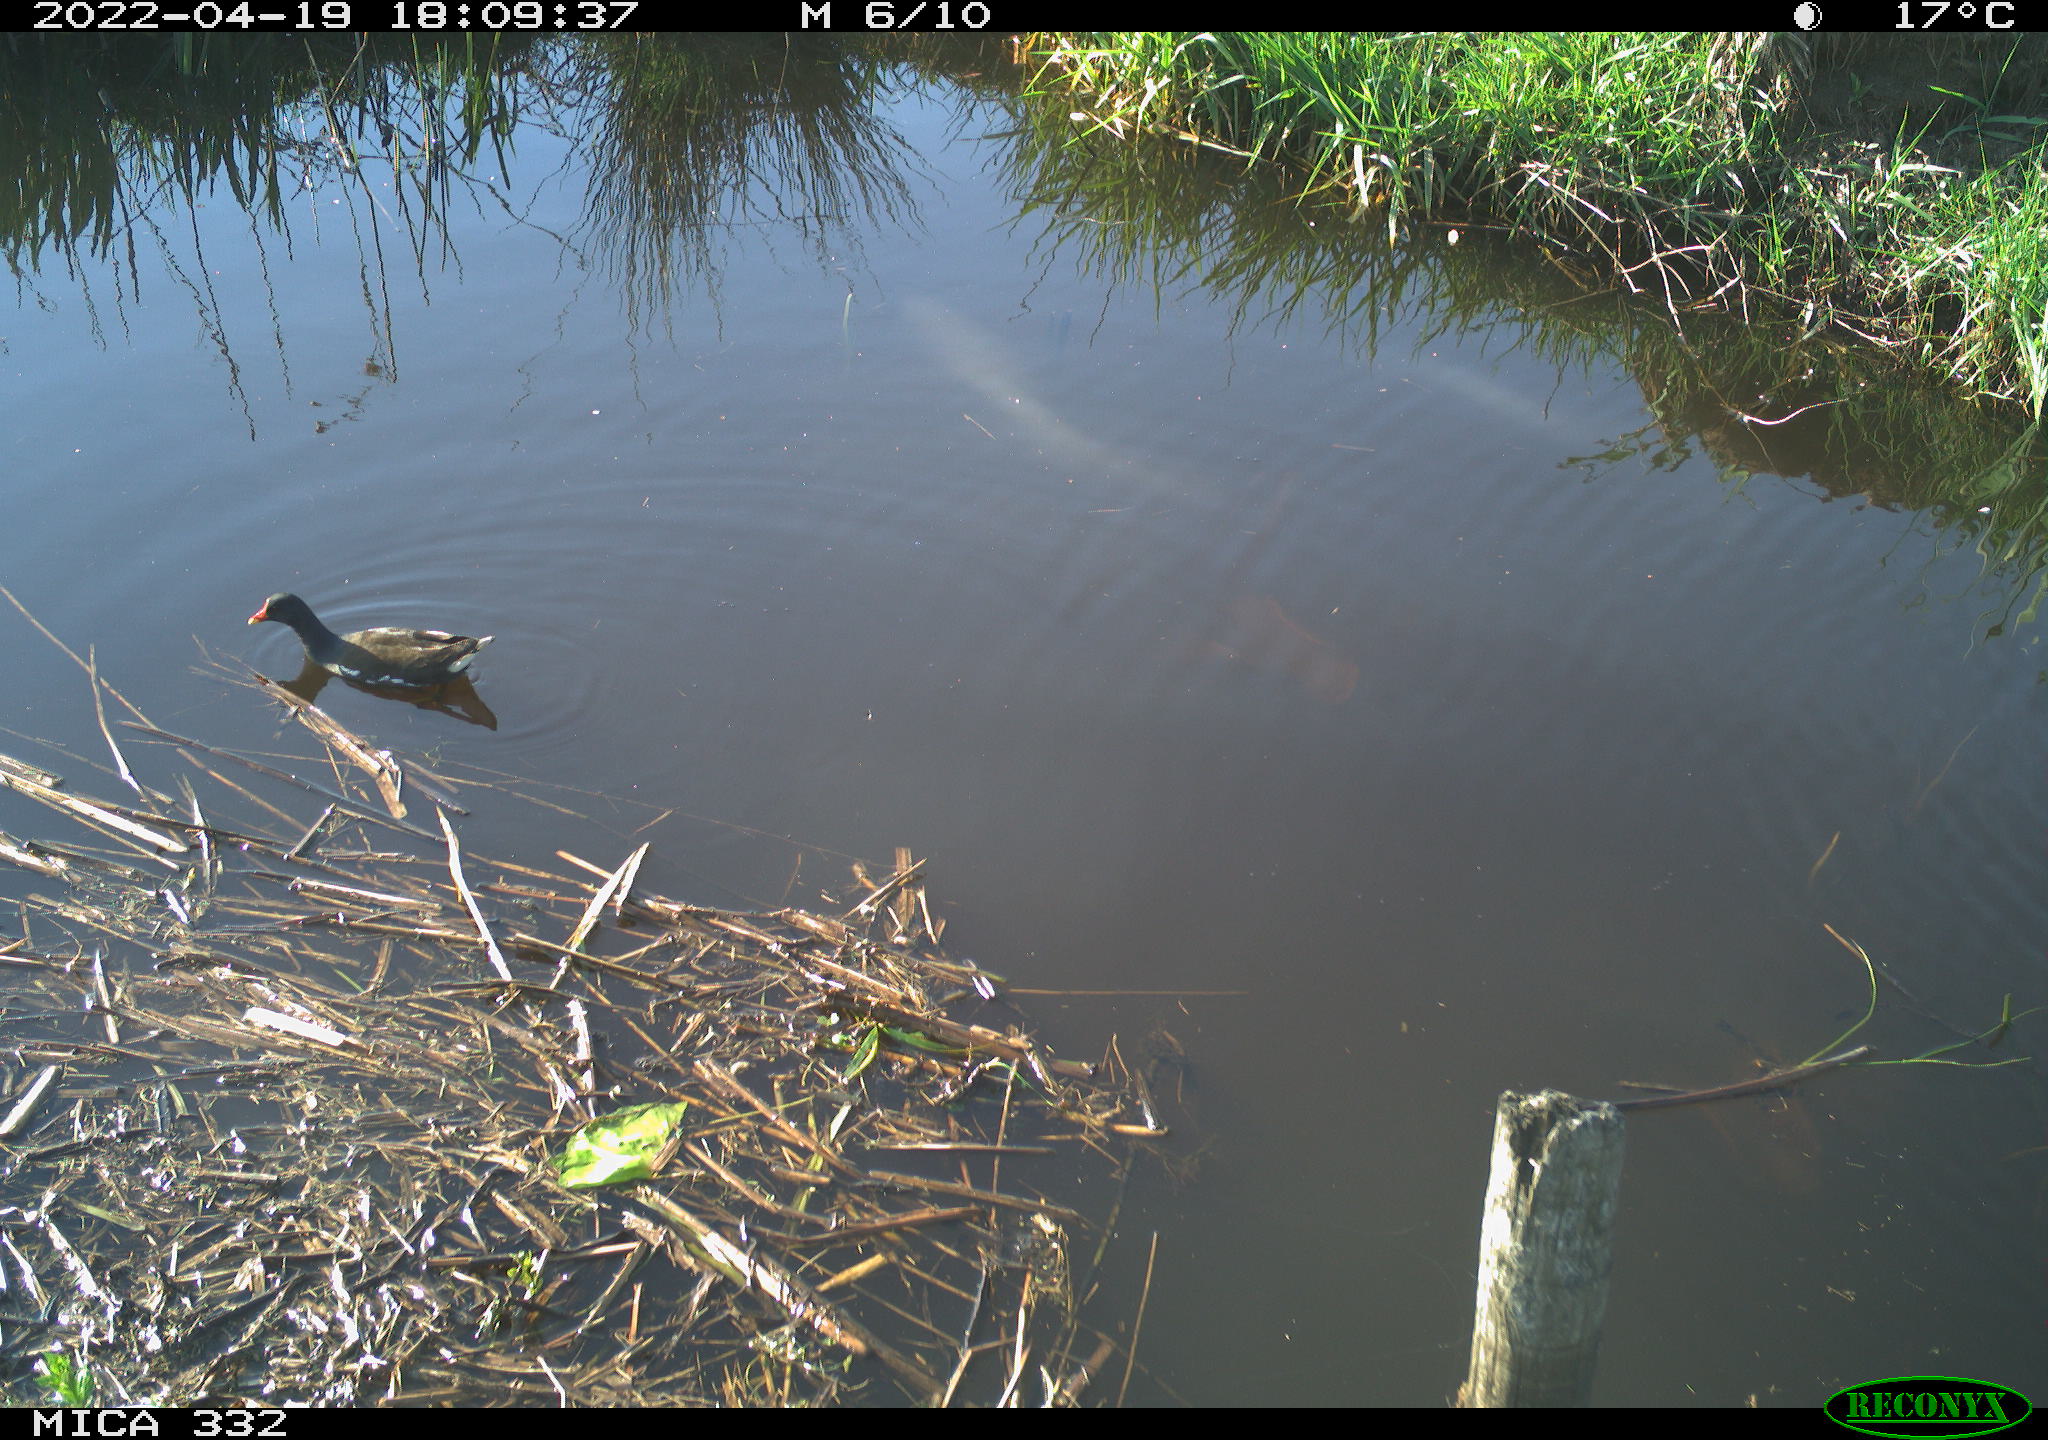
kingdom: Animalia
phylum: Chordata
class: Aves
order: Gruiformes
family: Rallidae
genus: Gallinula
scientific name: Gallinula chloropus
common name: Common moorhen
